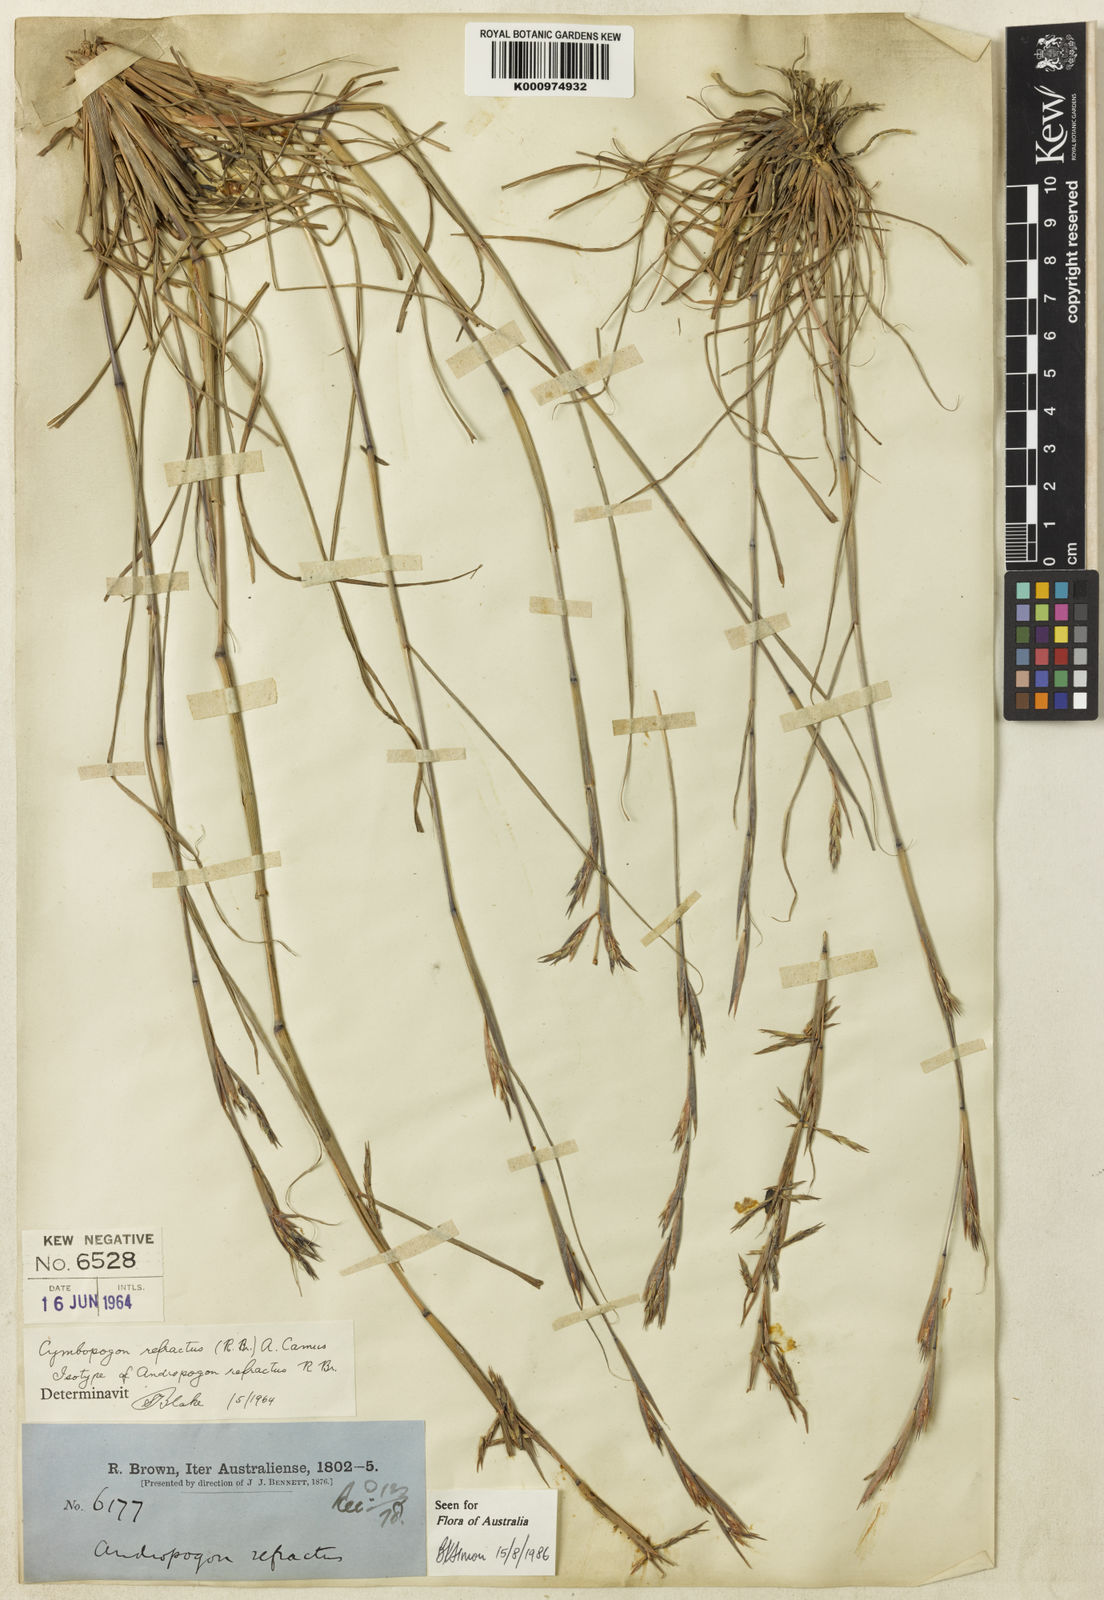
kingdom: Plantae
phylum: Tracheophyta
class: Liliopsida
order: Poales
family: Poaceae
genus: Cymbopogon
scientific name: Cymbopogon refractus
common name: Barbwire grass
